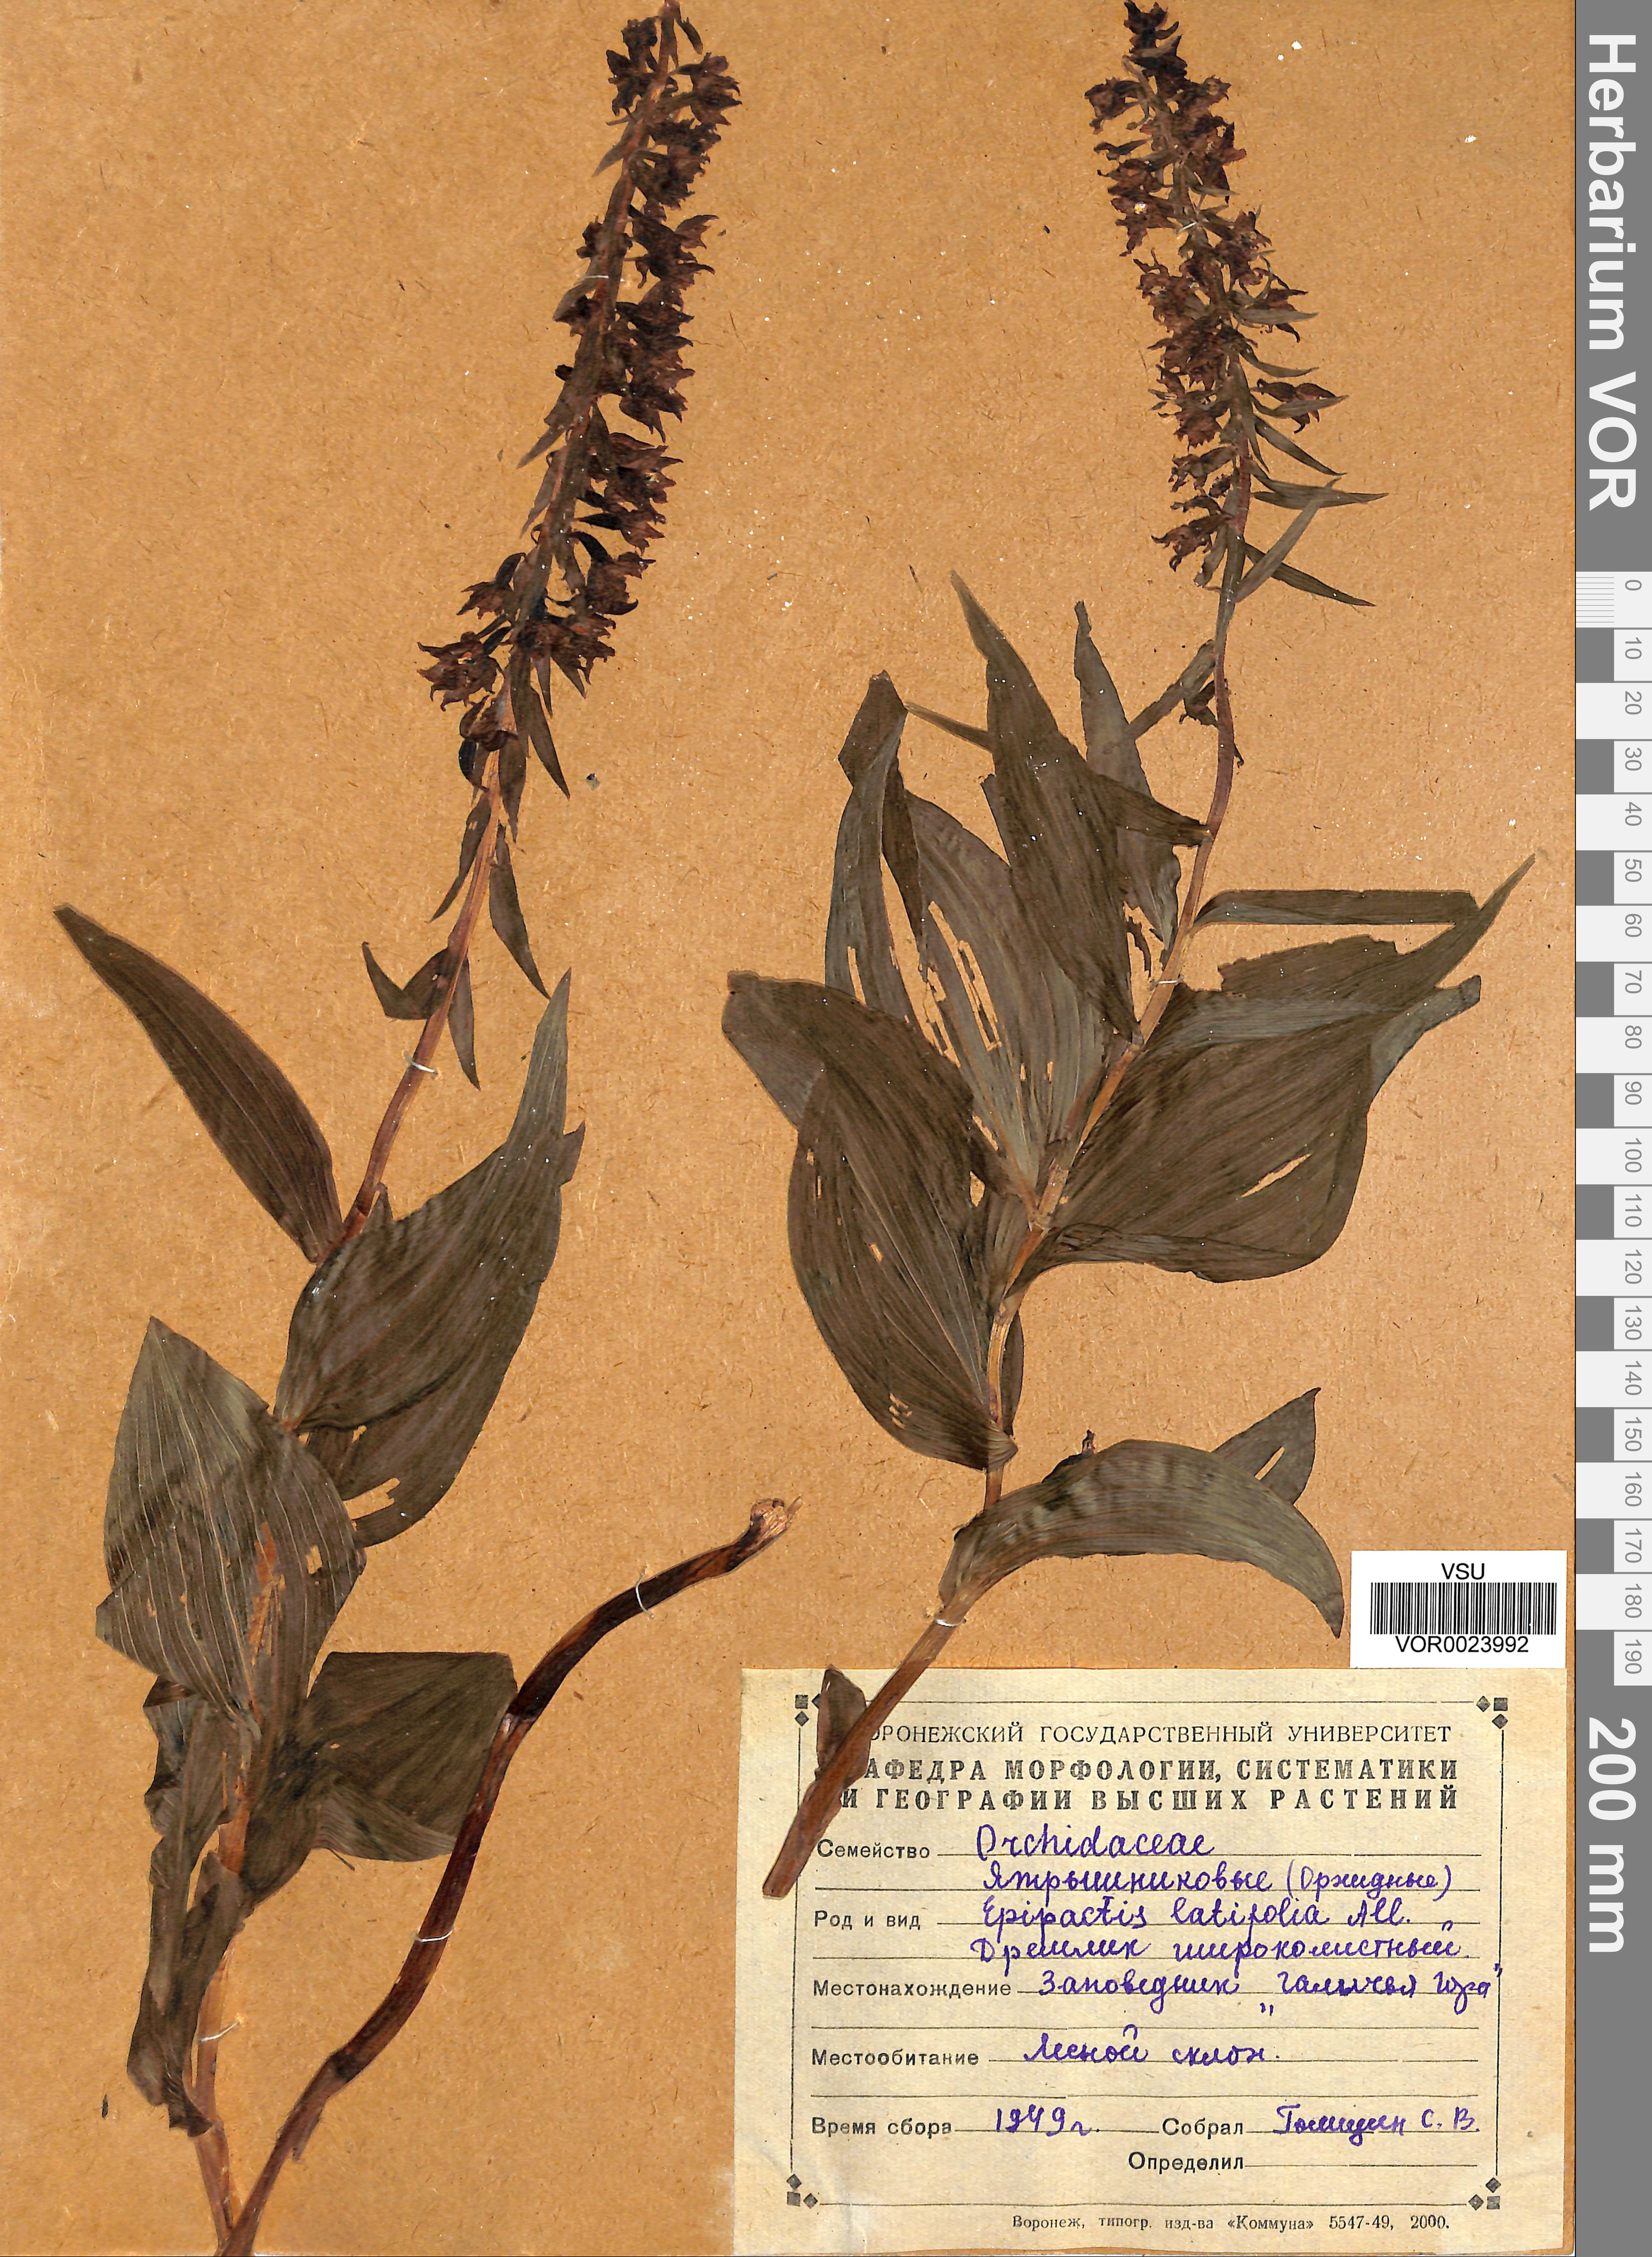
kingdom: Plantae
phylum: Tracheophyta
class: Liliopsida
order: Asparagales
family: Orchidaceae
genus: Epipactis
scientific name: Epipactis helleborine
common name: Broad-leaved helleborine
